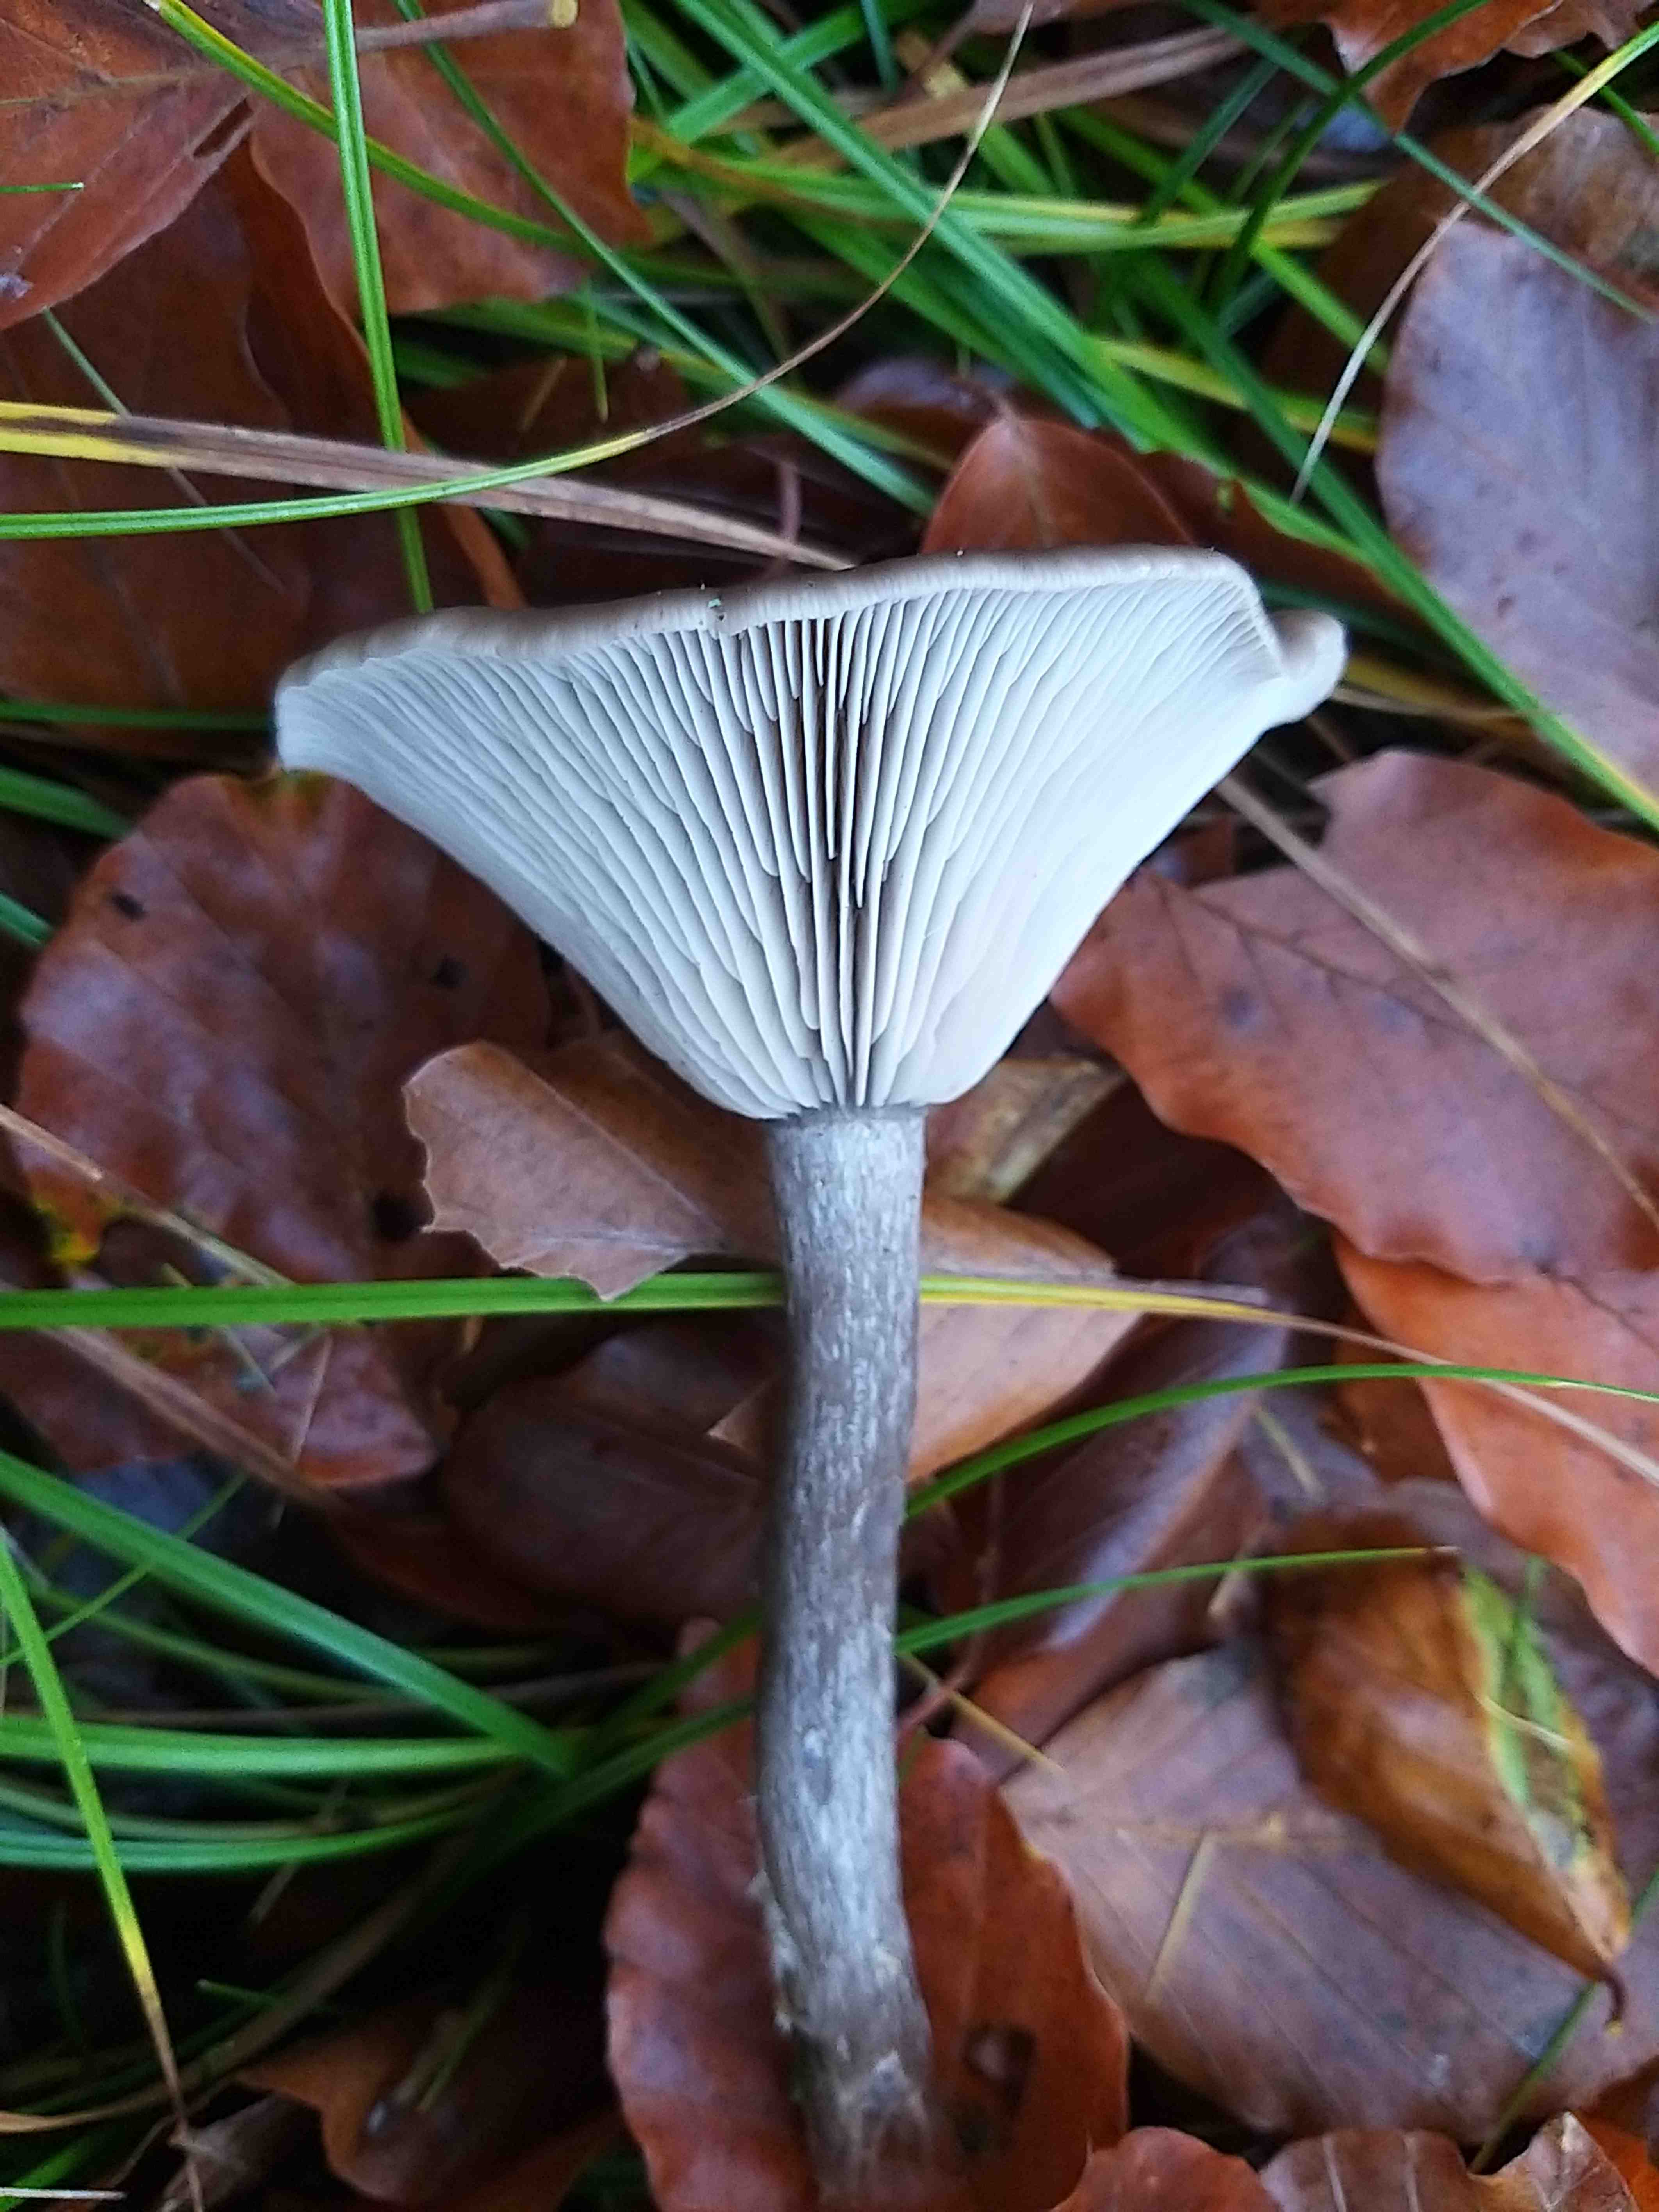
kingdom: Fungi
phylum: Basidiomycota
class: Agaricomycetes
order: Agaricales
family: Pseudoclitocybaceae
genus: Pseudoclitocybe
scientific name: Pseudoclitocybe cyathiformis
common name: almindelig bægertragthat
